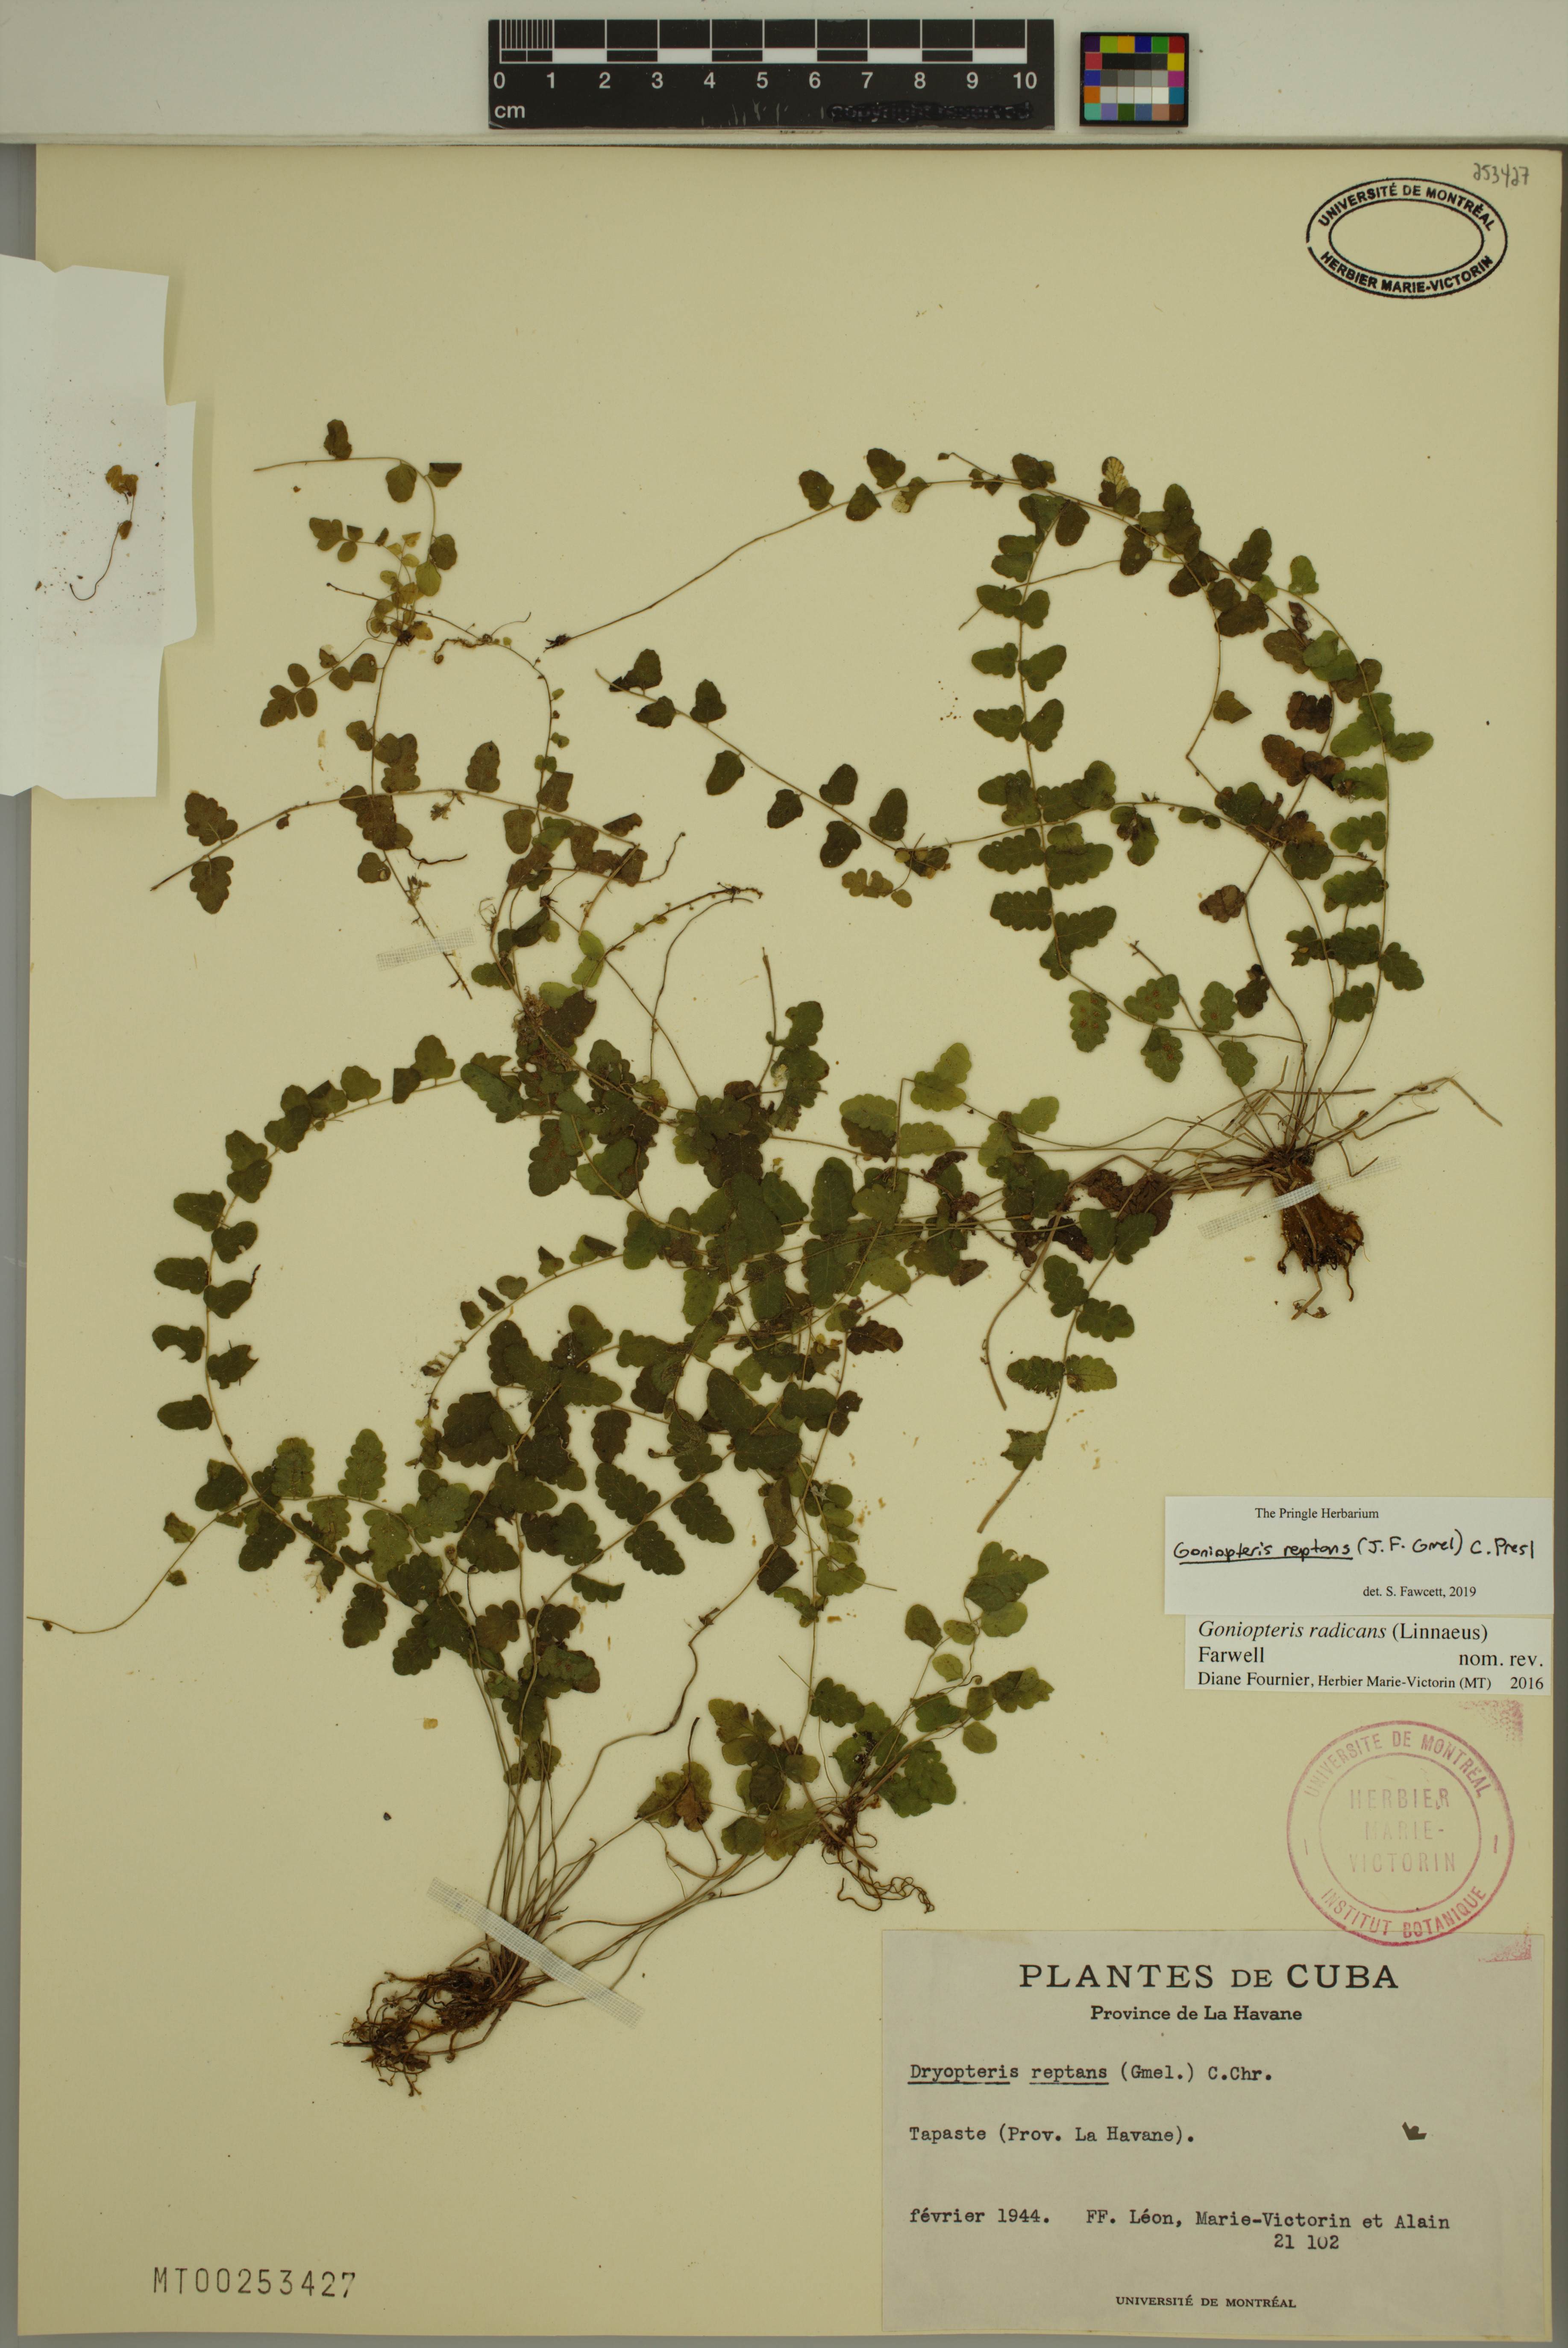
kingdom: Plantae
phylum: Tracheophyta
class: Polypodiopsida
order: Polypodiales
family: Thelypteridaceae
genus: Goniopteris
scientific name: Goniopteris reptans
